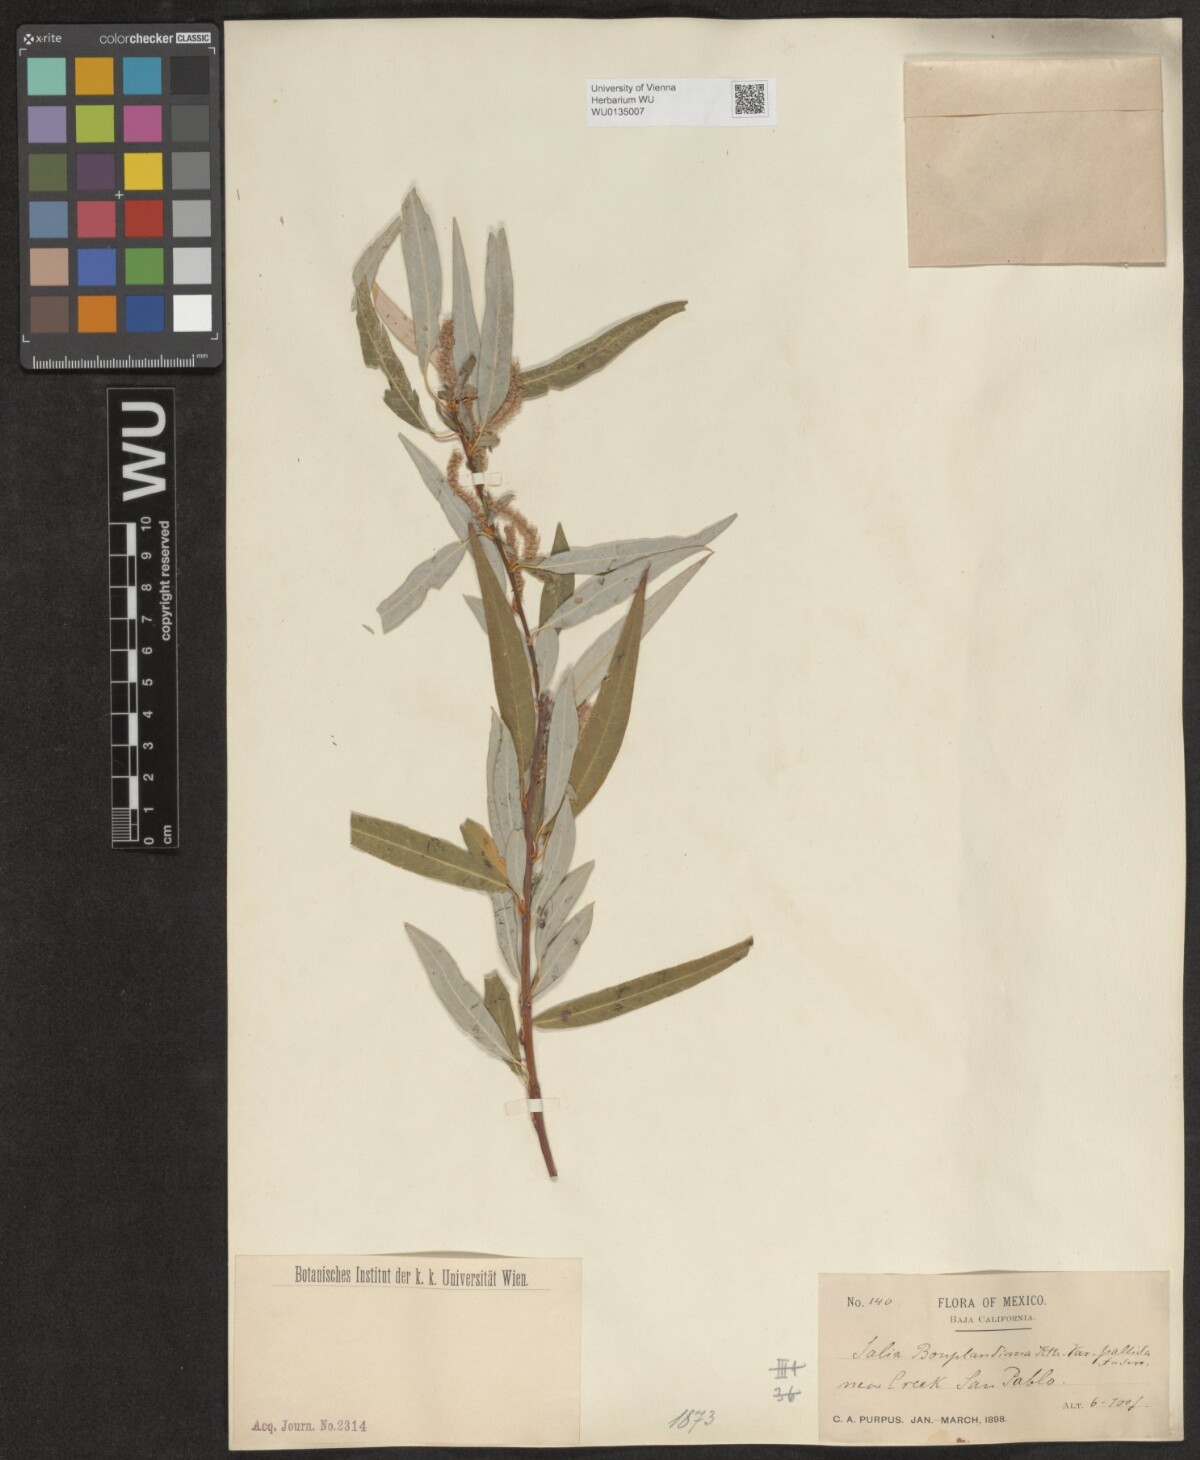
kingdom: Plantae
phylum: Tracheophyta
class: Magnoliopsida
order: Malpighiales
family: Salicaceae
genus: Salix
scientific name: Salix bonplandiana
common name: Bonpland’s willow
